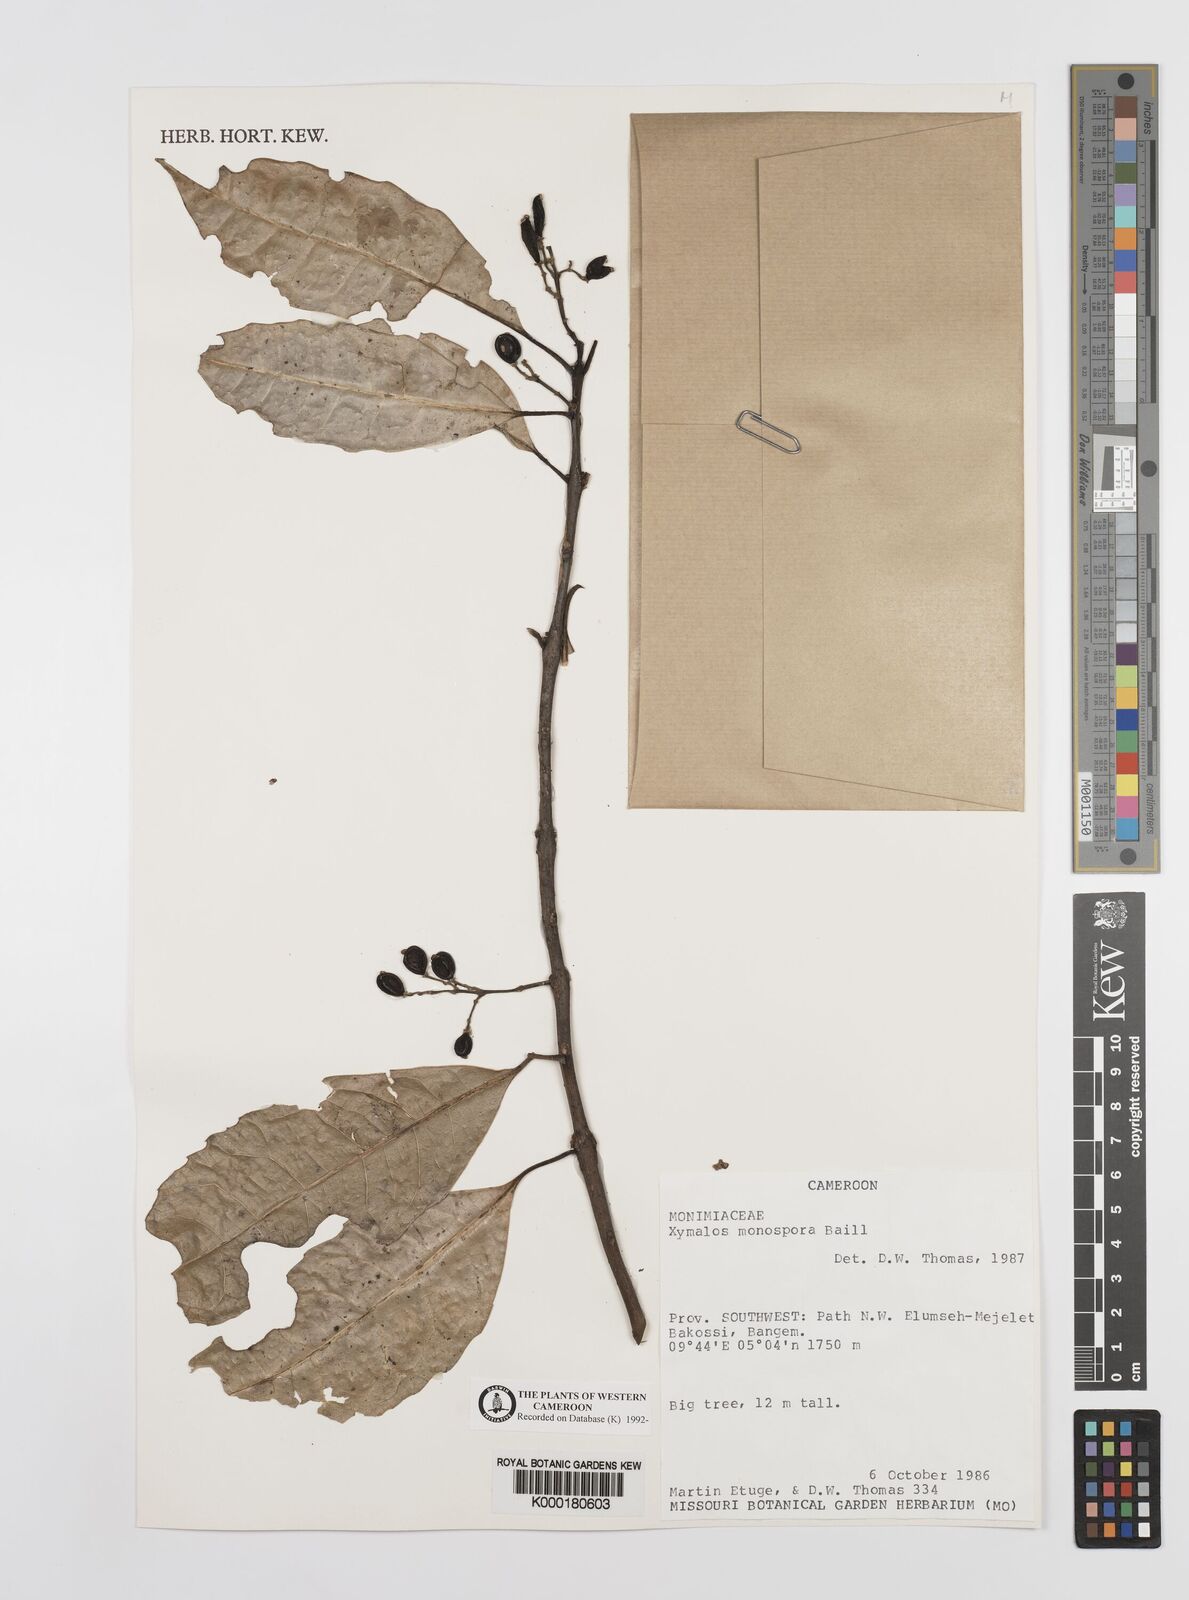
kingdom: Plantae
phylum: Tracheophyta
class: Magnoliopsida
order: Laurales
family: Monimiaceae
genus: Xymalos
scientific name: Xymalos
